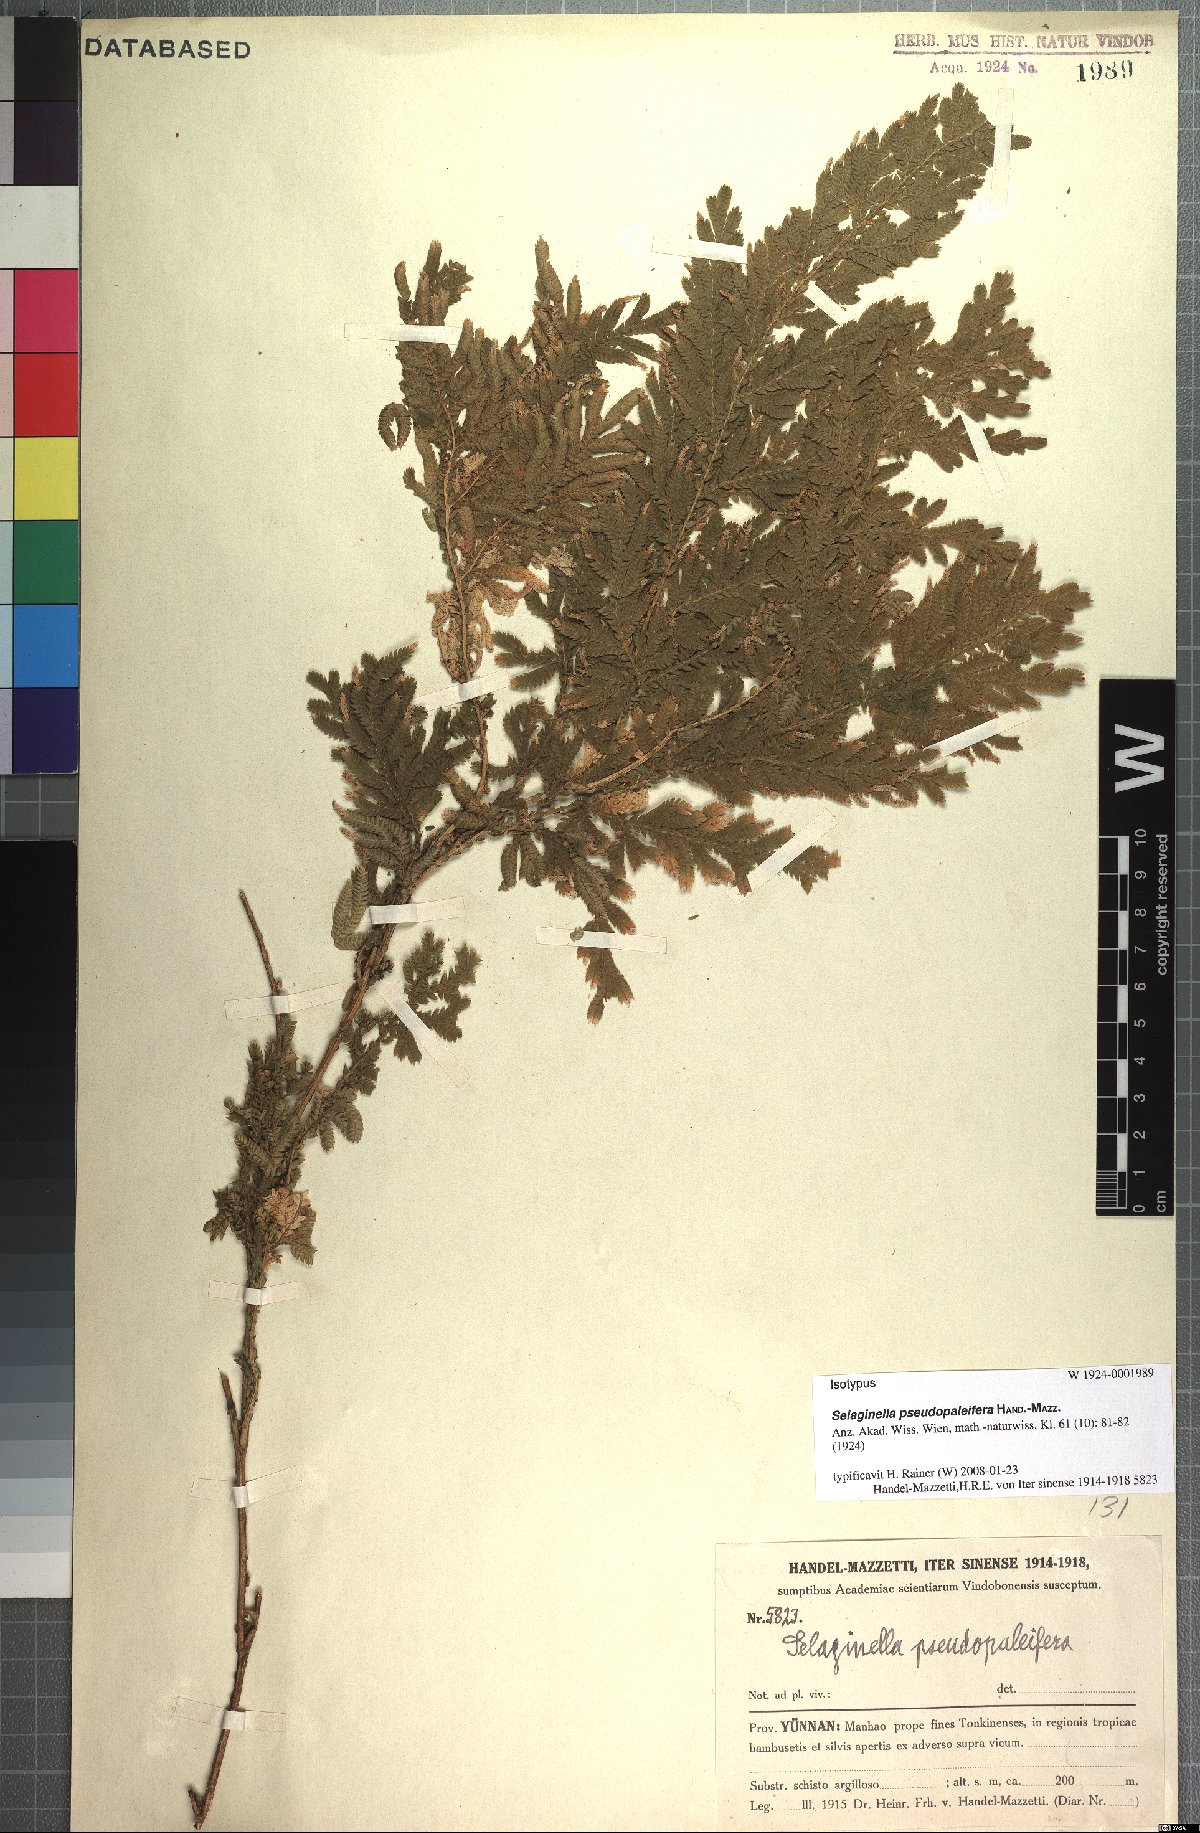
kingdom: Plantae
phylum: Tracheophyta
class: Lycopodiopsida
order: Selaginellales
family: Selaginellaceae
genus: Selaginella
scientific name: Selaginella pseudopaleifera
